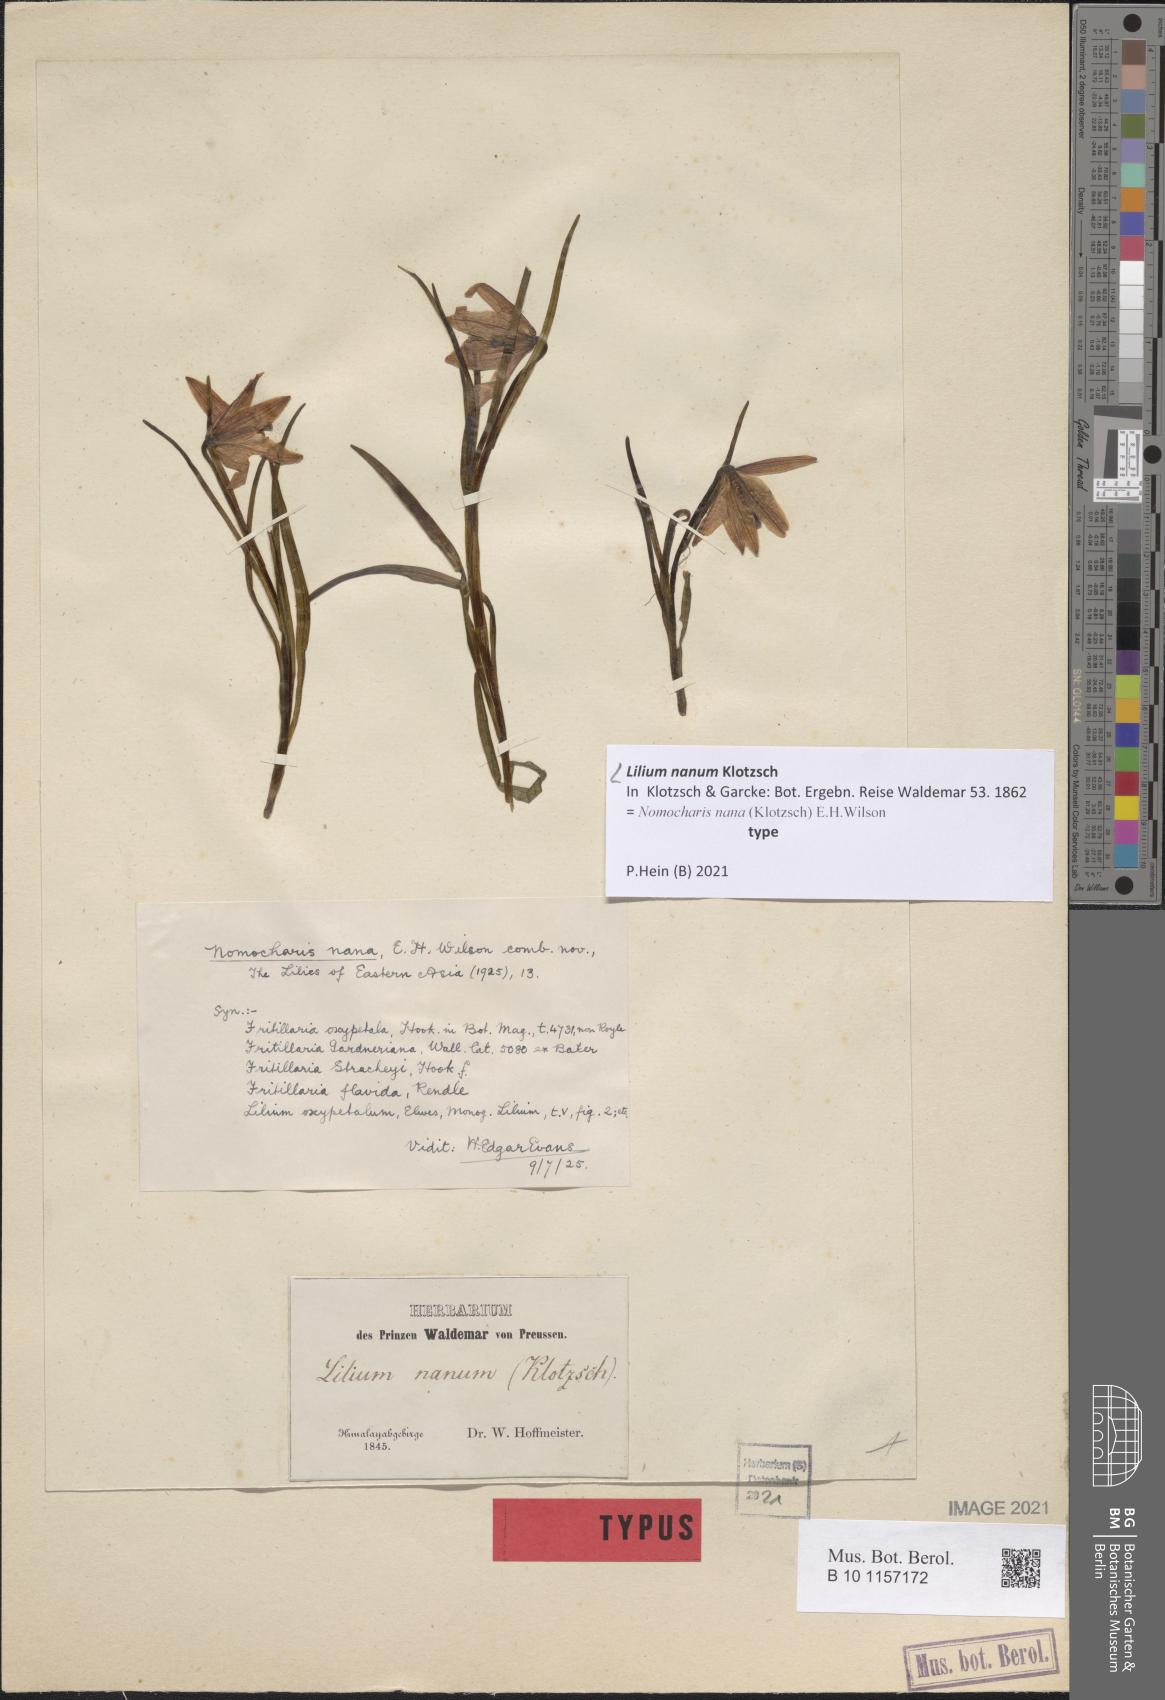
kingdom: Plantae
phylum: Tracheophyta
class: Liliopsida
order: Liliales
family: Liliaceae
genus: Lilium
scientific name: Lilium nanum
